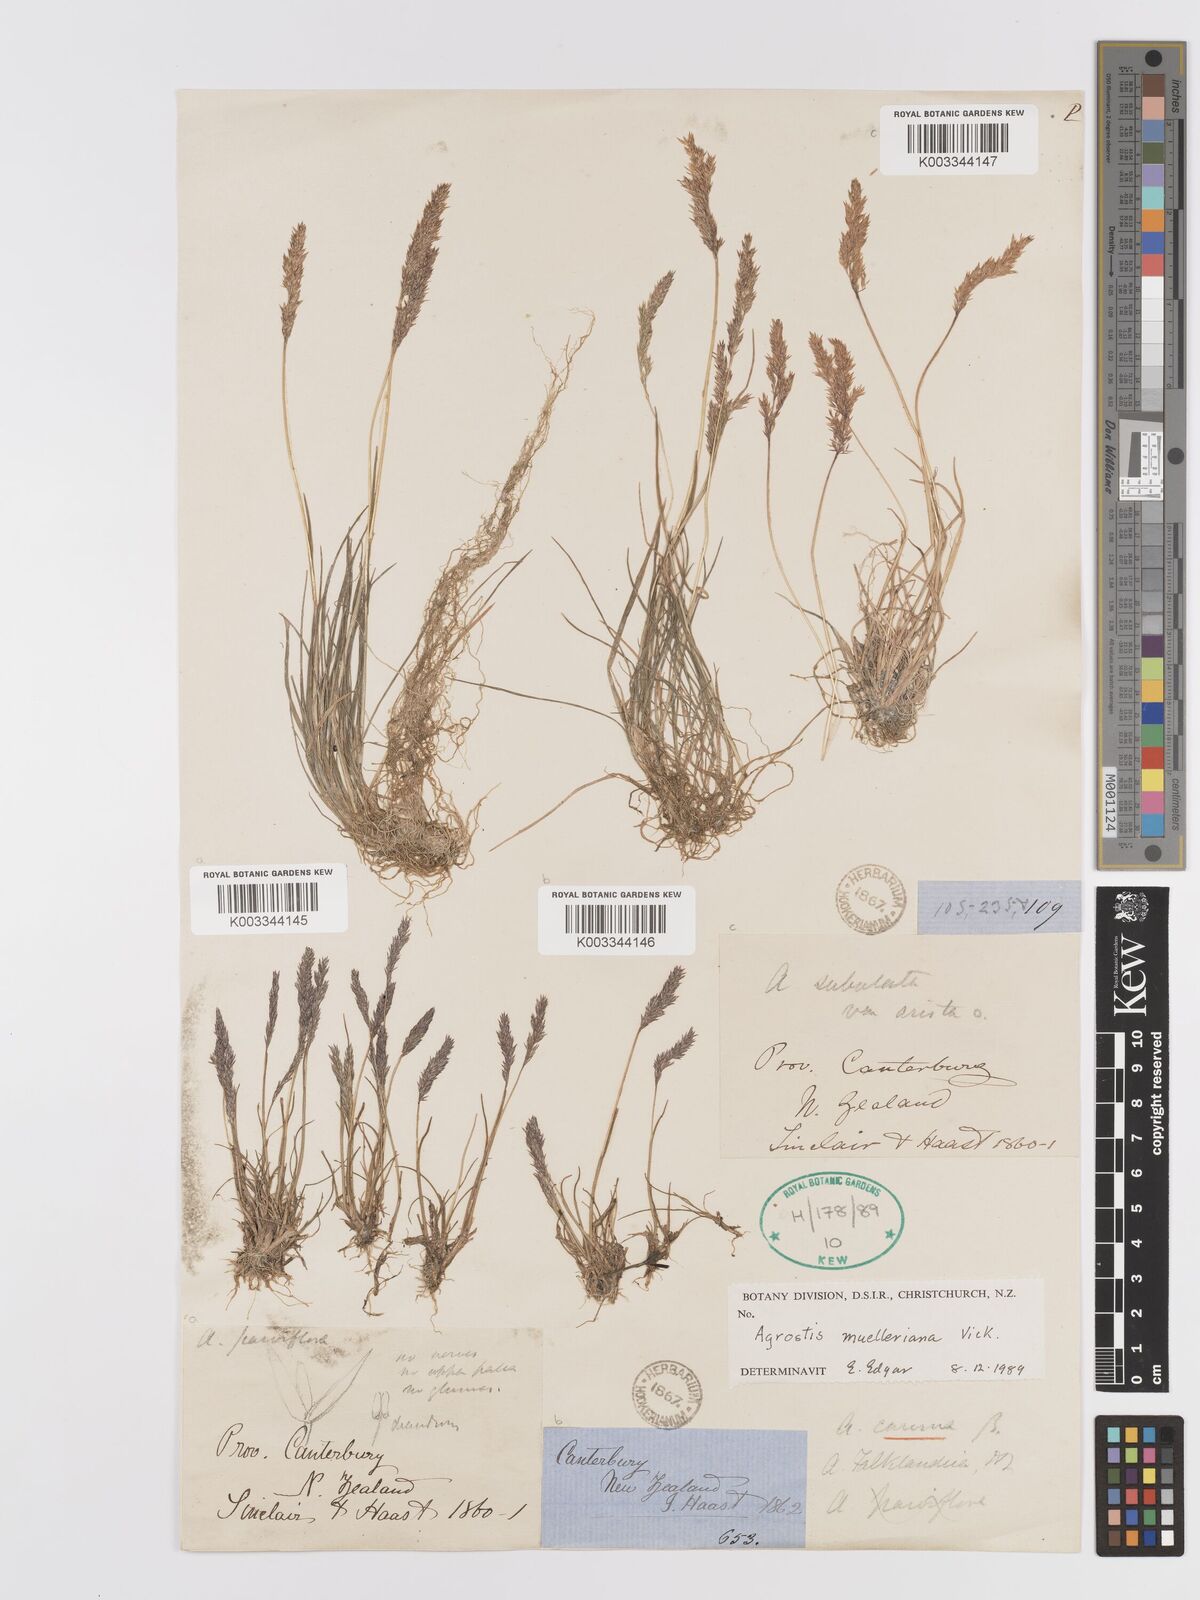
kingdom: Plantae
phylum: Tracheophyta
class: Liliopsida
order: Poales
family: Poaceae
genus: Agrostis
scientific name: Agrostis muelleriana
